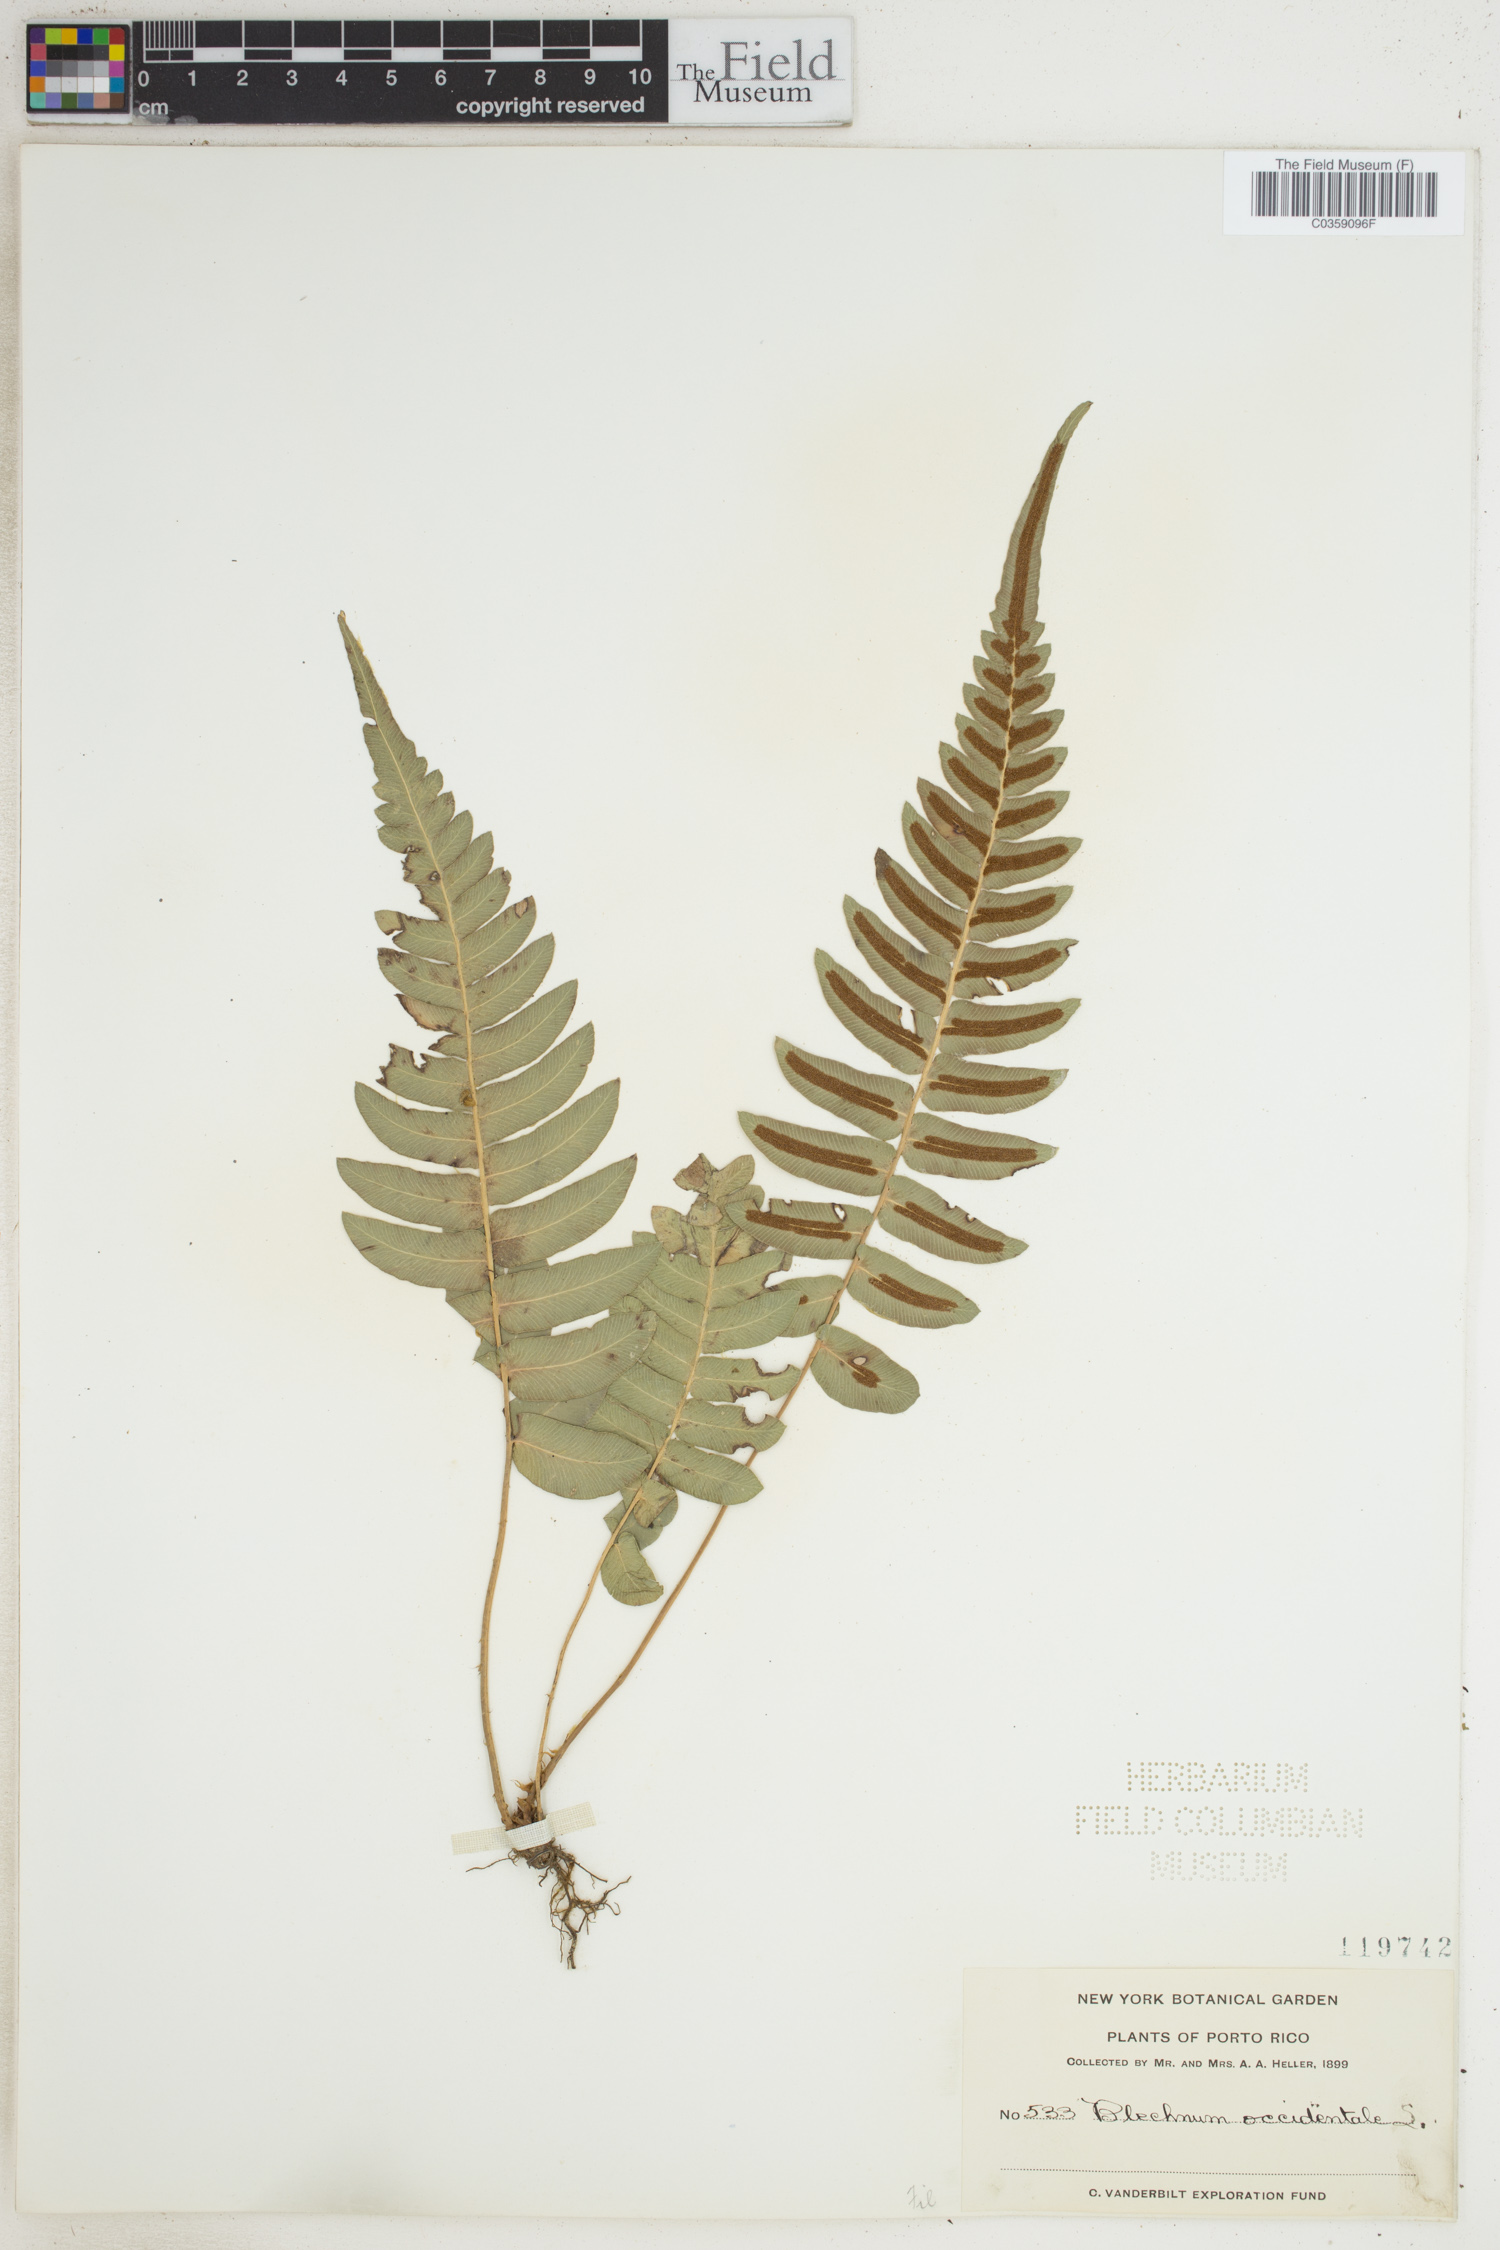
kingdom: Plantae
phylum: Tracheophyta
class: Polypodiopsida
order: Polypodiales
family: Blechnaceae
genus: Blechnum
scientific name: Blechnum occidentale
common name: Hammock fern
